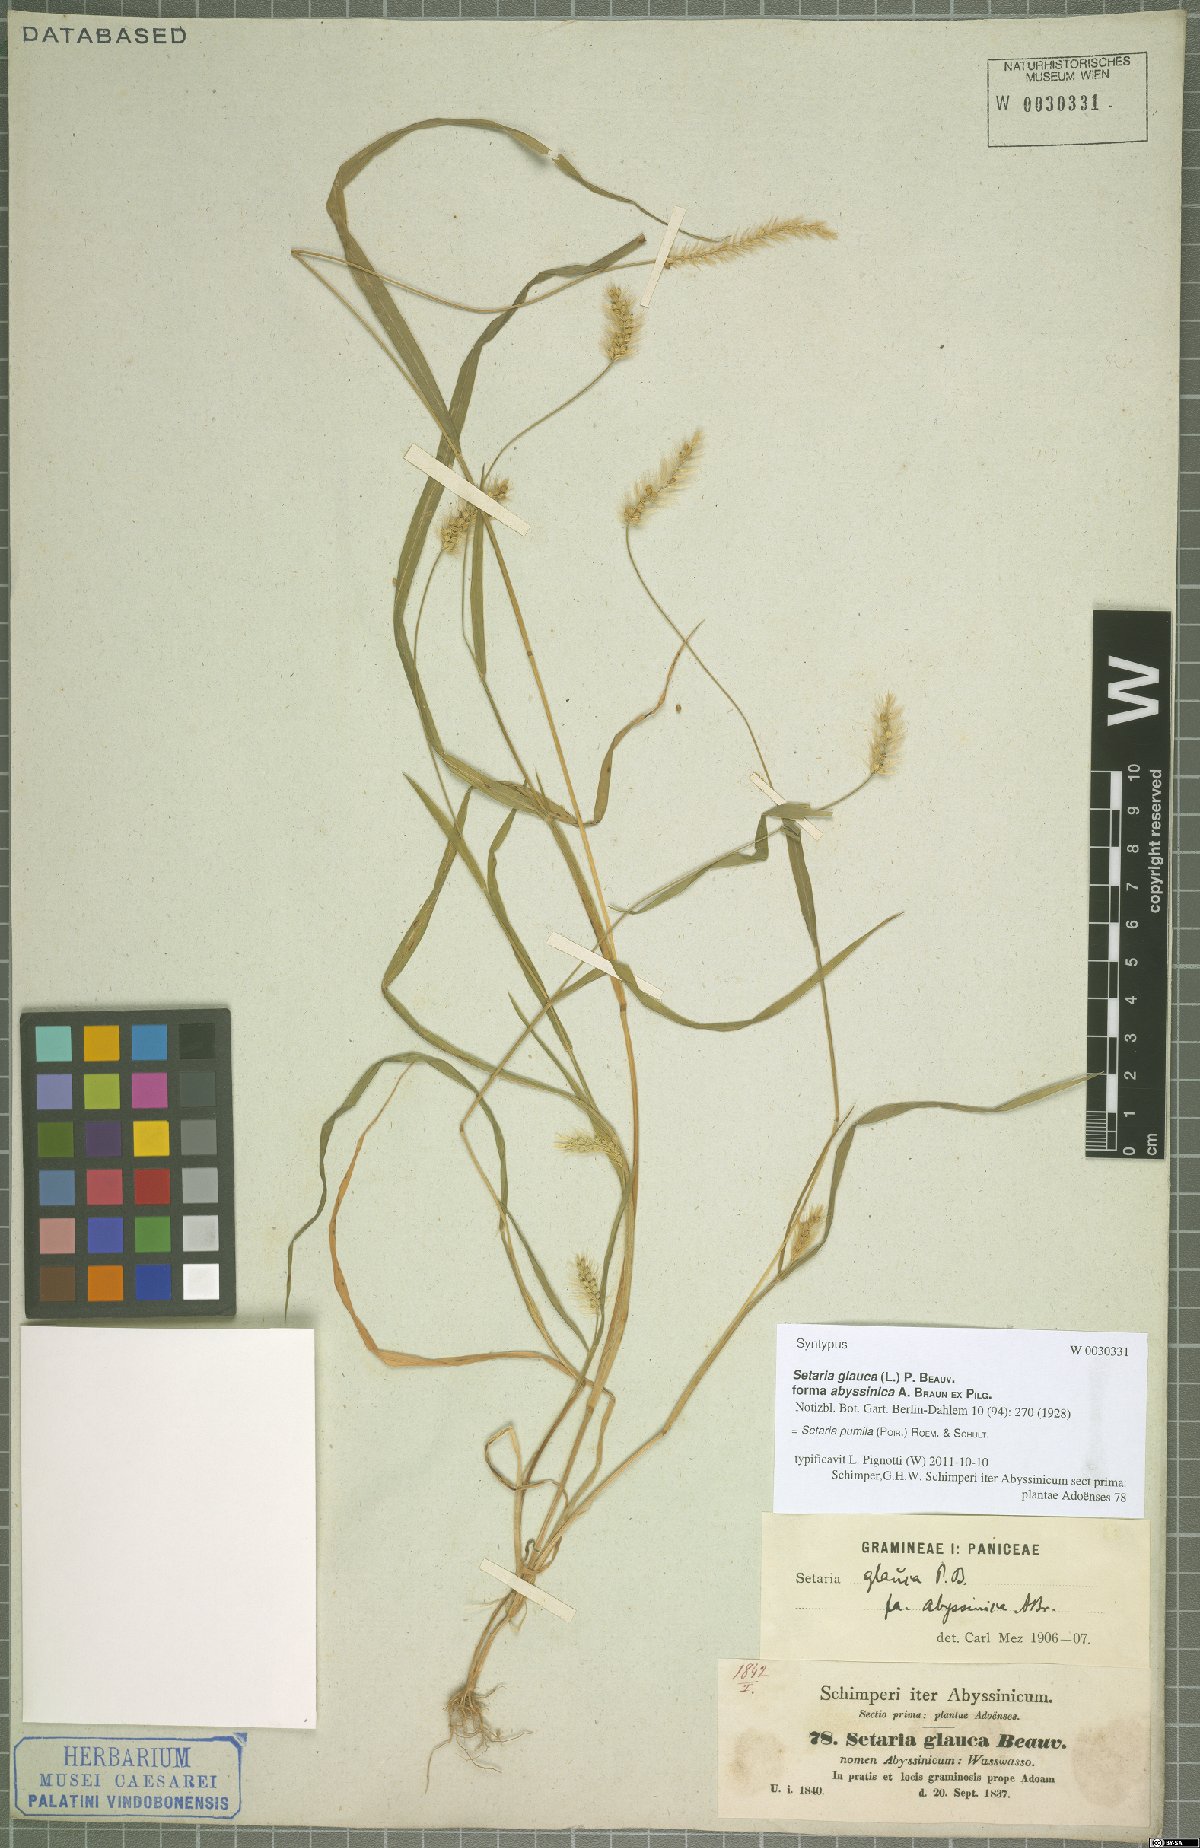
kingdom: Plantae
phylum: Tracheophyta
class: Liliopsida
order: Poales
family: Poaceae
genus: Setaria
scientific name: Setaria pumila
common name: Yellow bristle-grass
